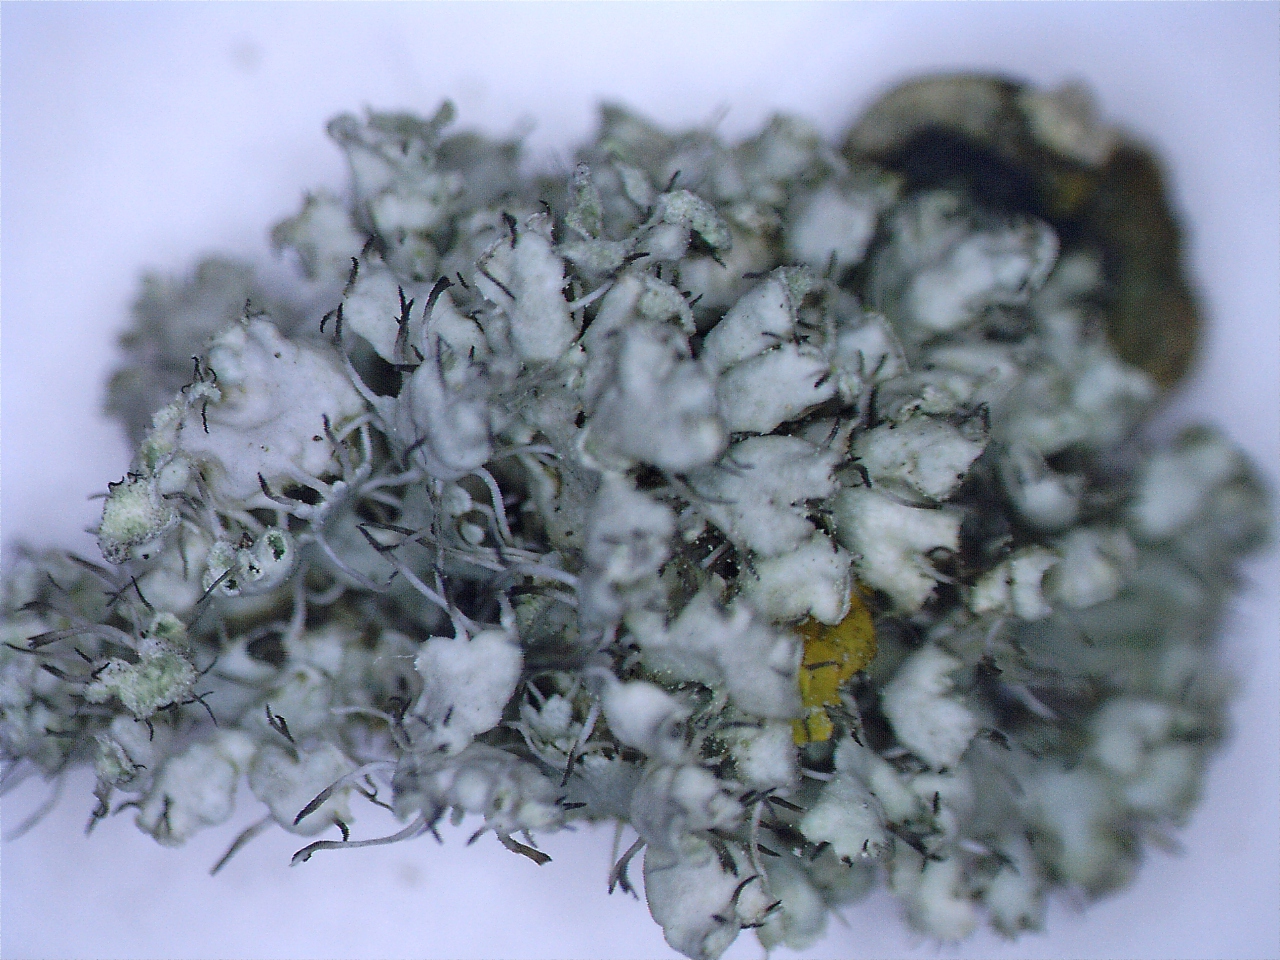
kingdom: Fungi
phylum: Ascomycota
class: Lecanoromycetes
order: Caliciales
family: Physciaceae
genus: Physcia
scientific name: Physcia adscendens
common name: hætte-rosetlav
